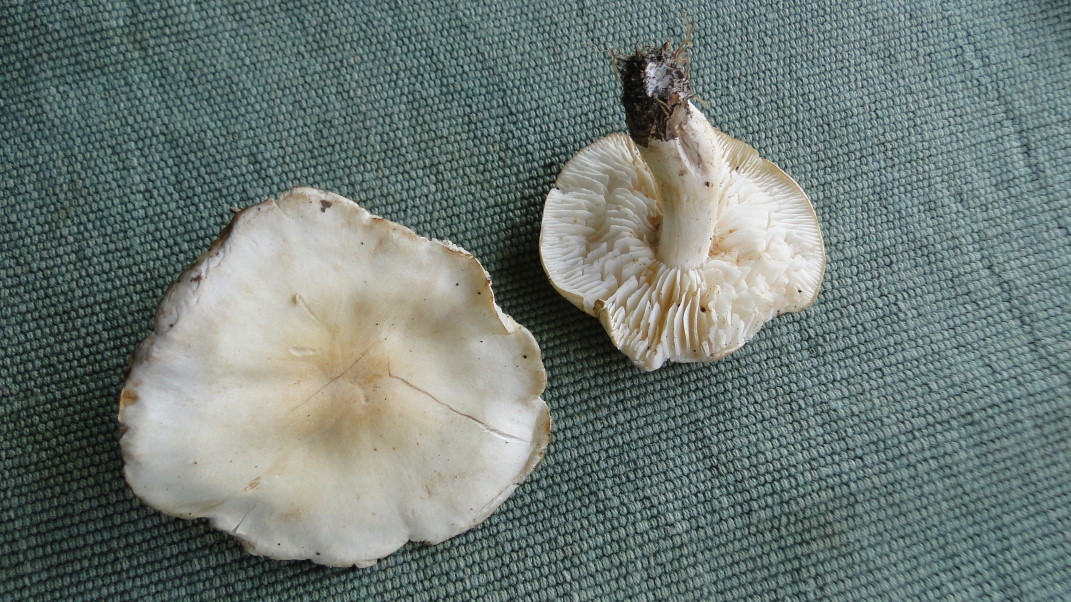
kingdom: Fungi
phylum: Basidiomycota
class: Agaricomycetes
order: Agaricales
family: Tricholomataceae
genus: Tricholoma
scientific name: Tricholoma album
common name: honning-ridderhat
